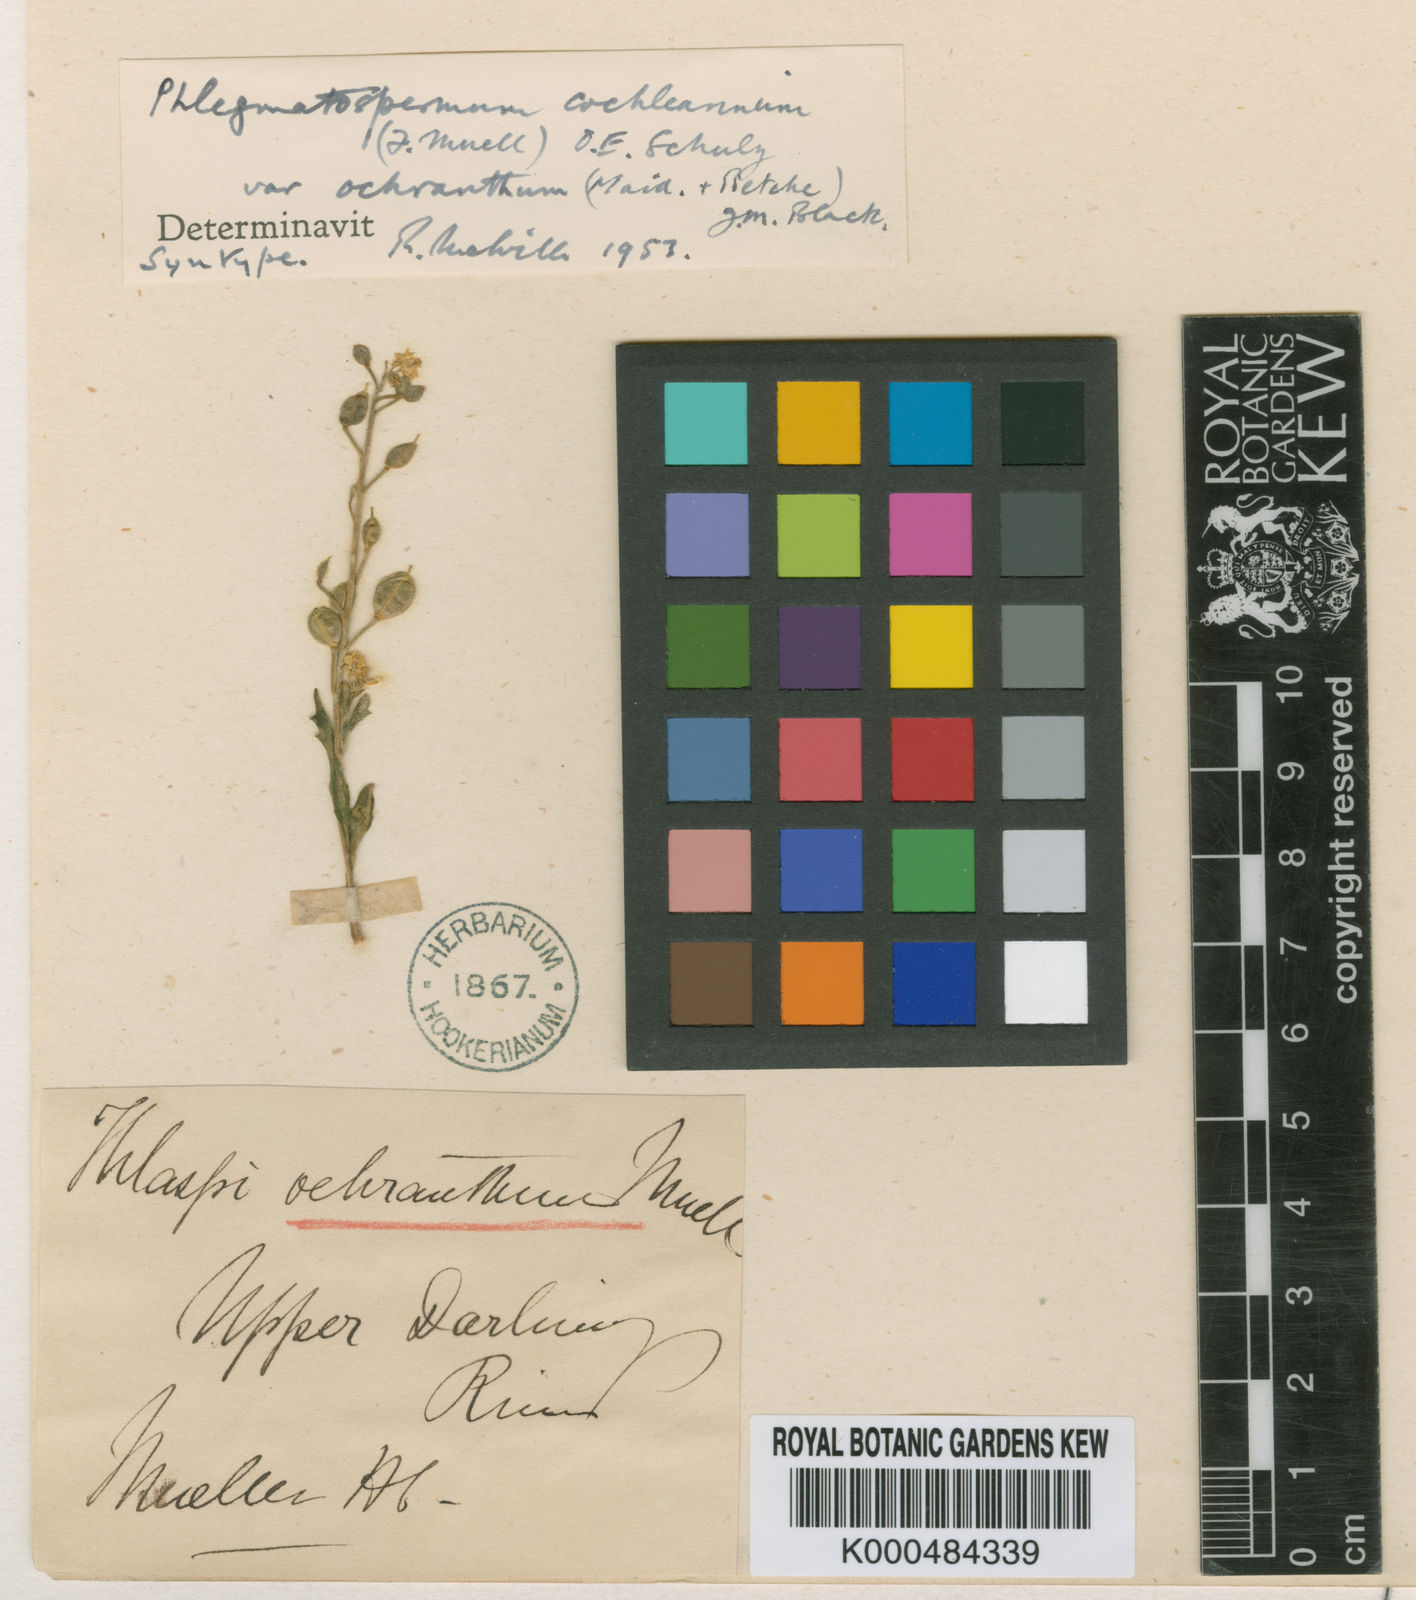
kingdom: Plantae
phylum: Tracheophyta
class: Magnoliopsida
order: Brassicales
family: Brassicaceae
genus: Phlegmatospermum
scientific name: Phlegmatospermum cochlearinum
